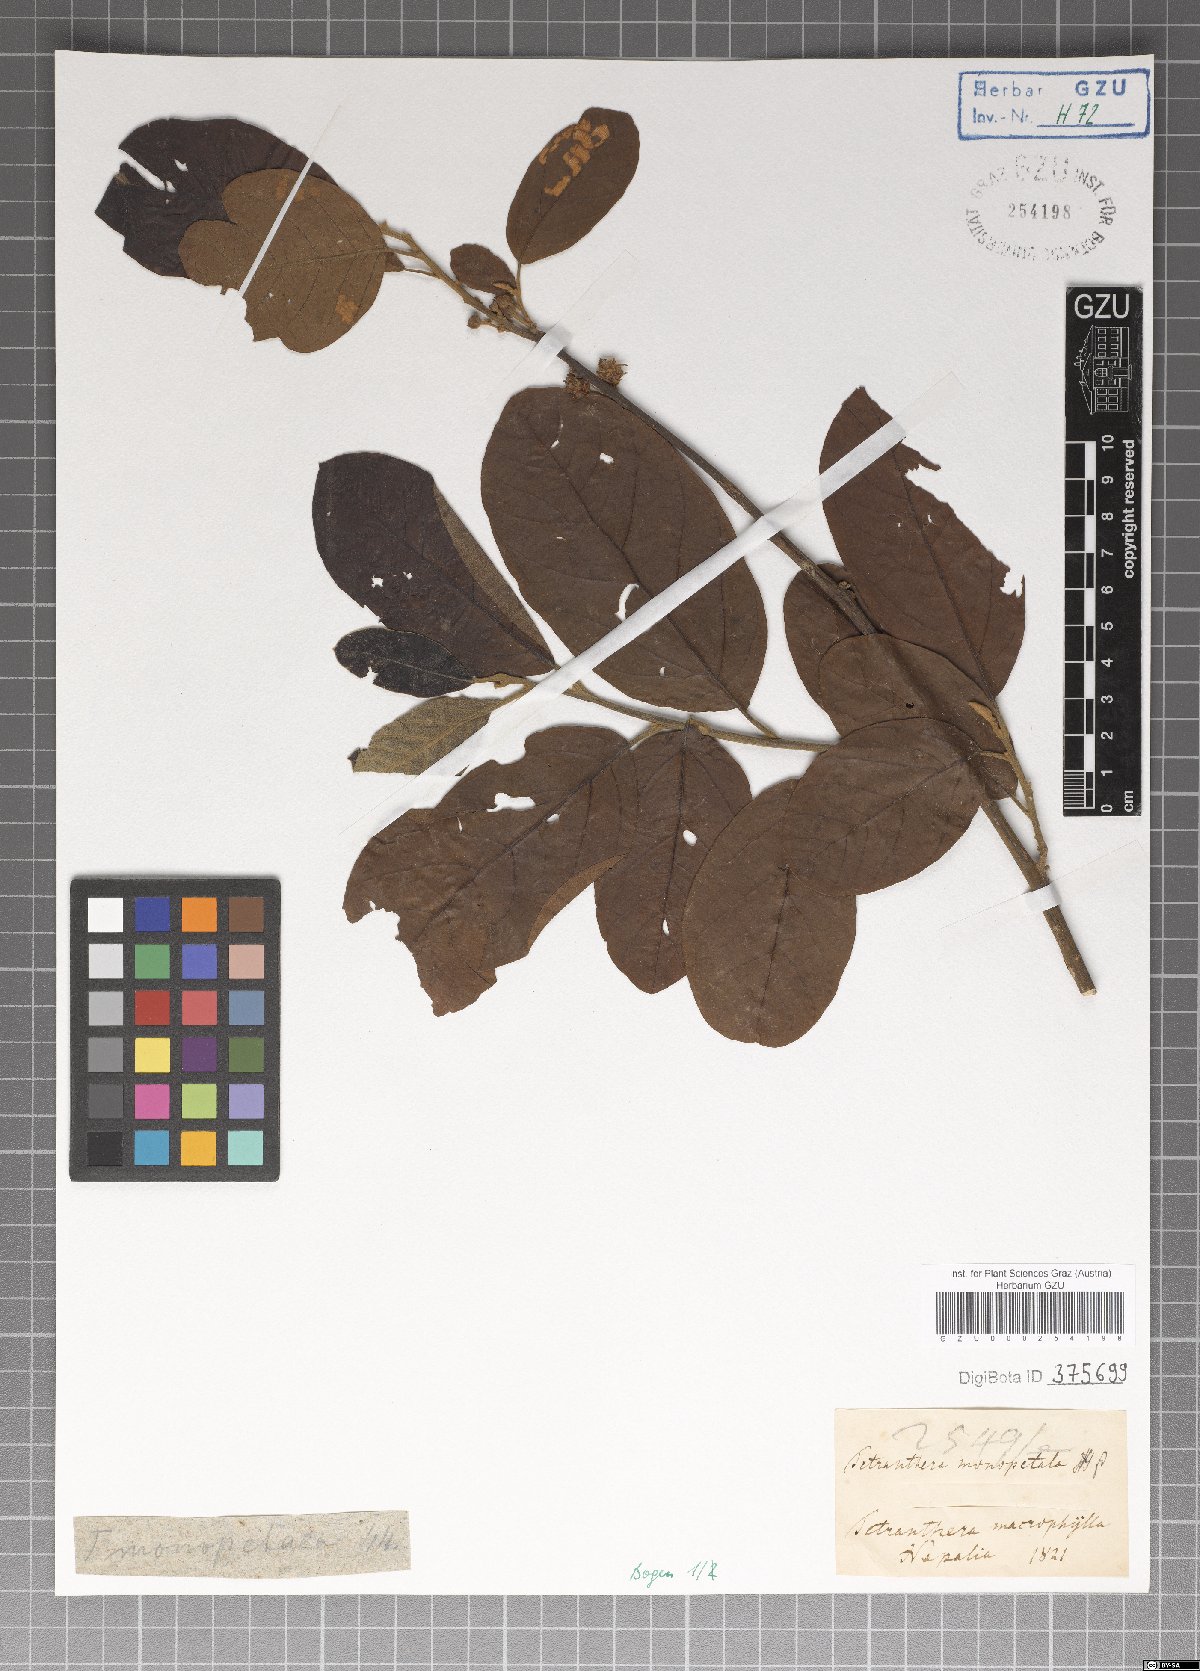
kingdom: Plantae
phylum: Tracheophyta
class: Magnoliopsida
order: Laurales
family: Lauraceae
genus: Litsea
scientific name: Litsea monopetala
